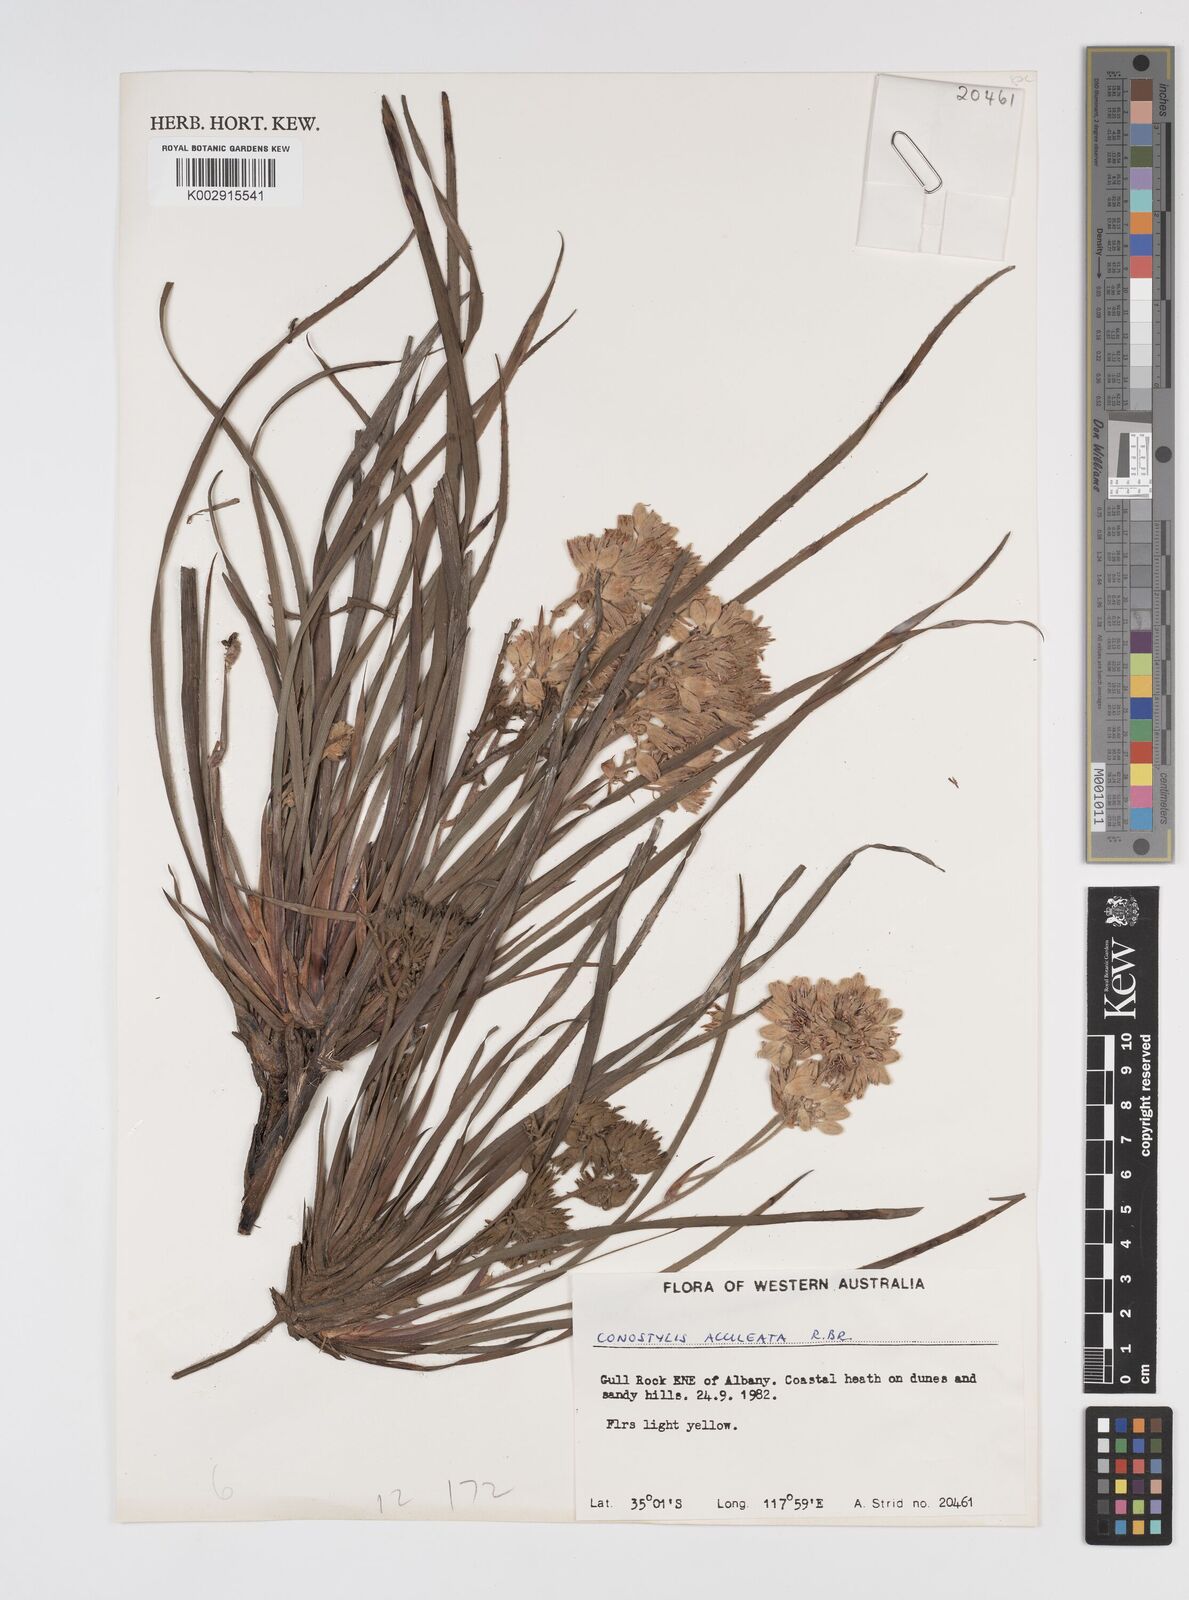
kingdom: Plantae
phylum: Tracheophyta
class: Liliopsida
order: Commelinales
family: Haemodoraceae
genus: Conostylis
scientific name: Conostylis aculeata
